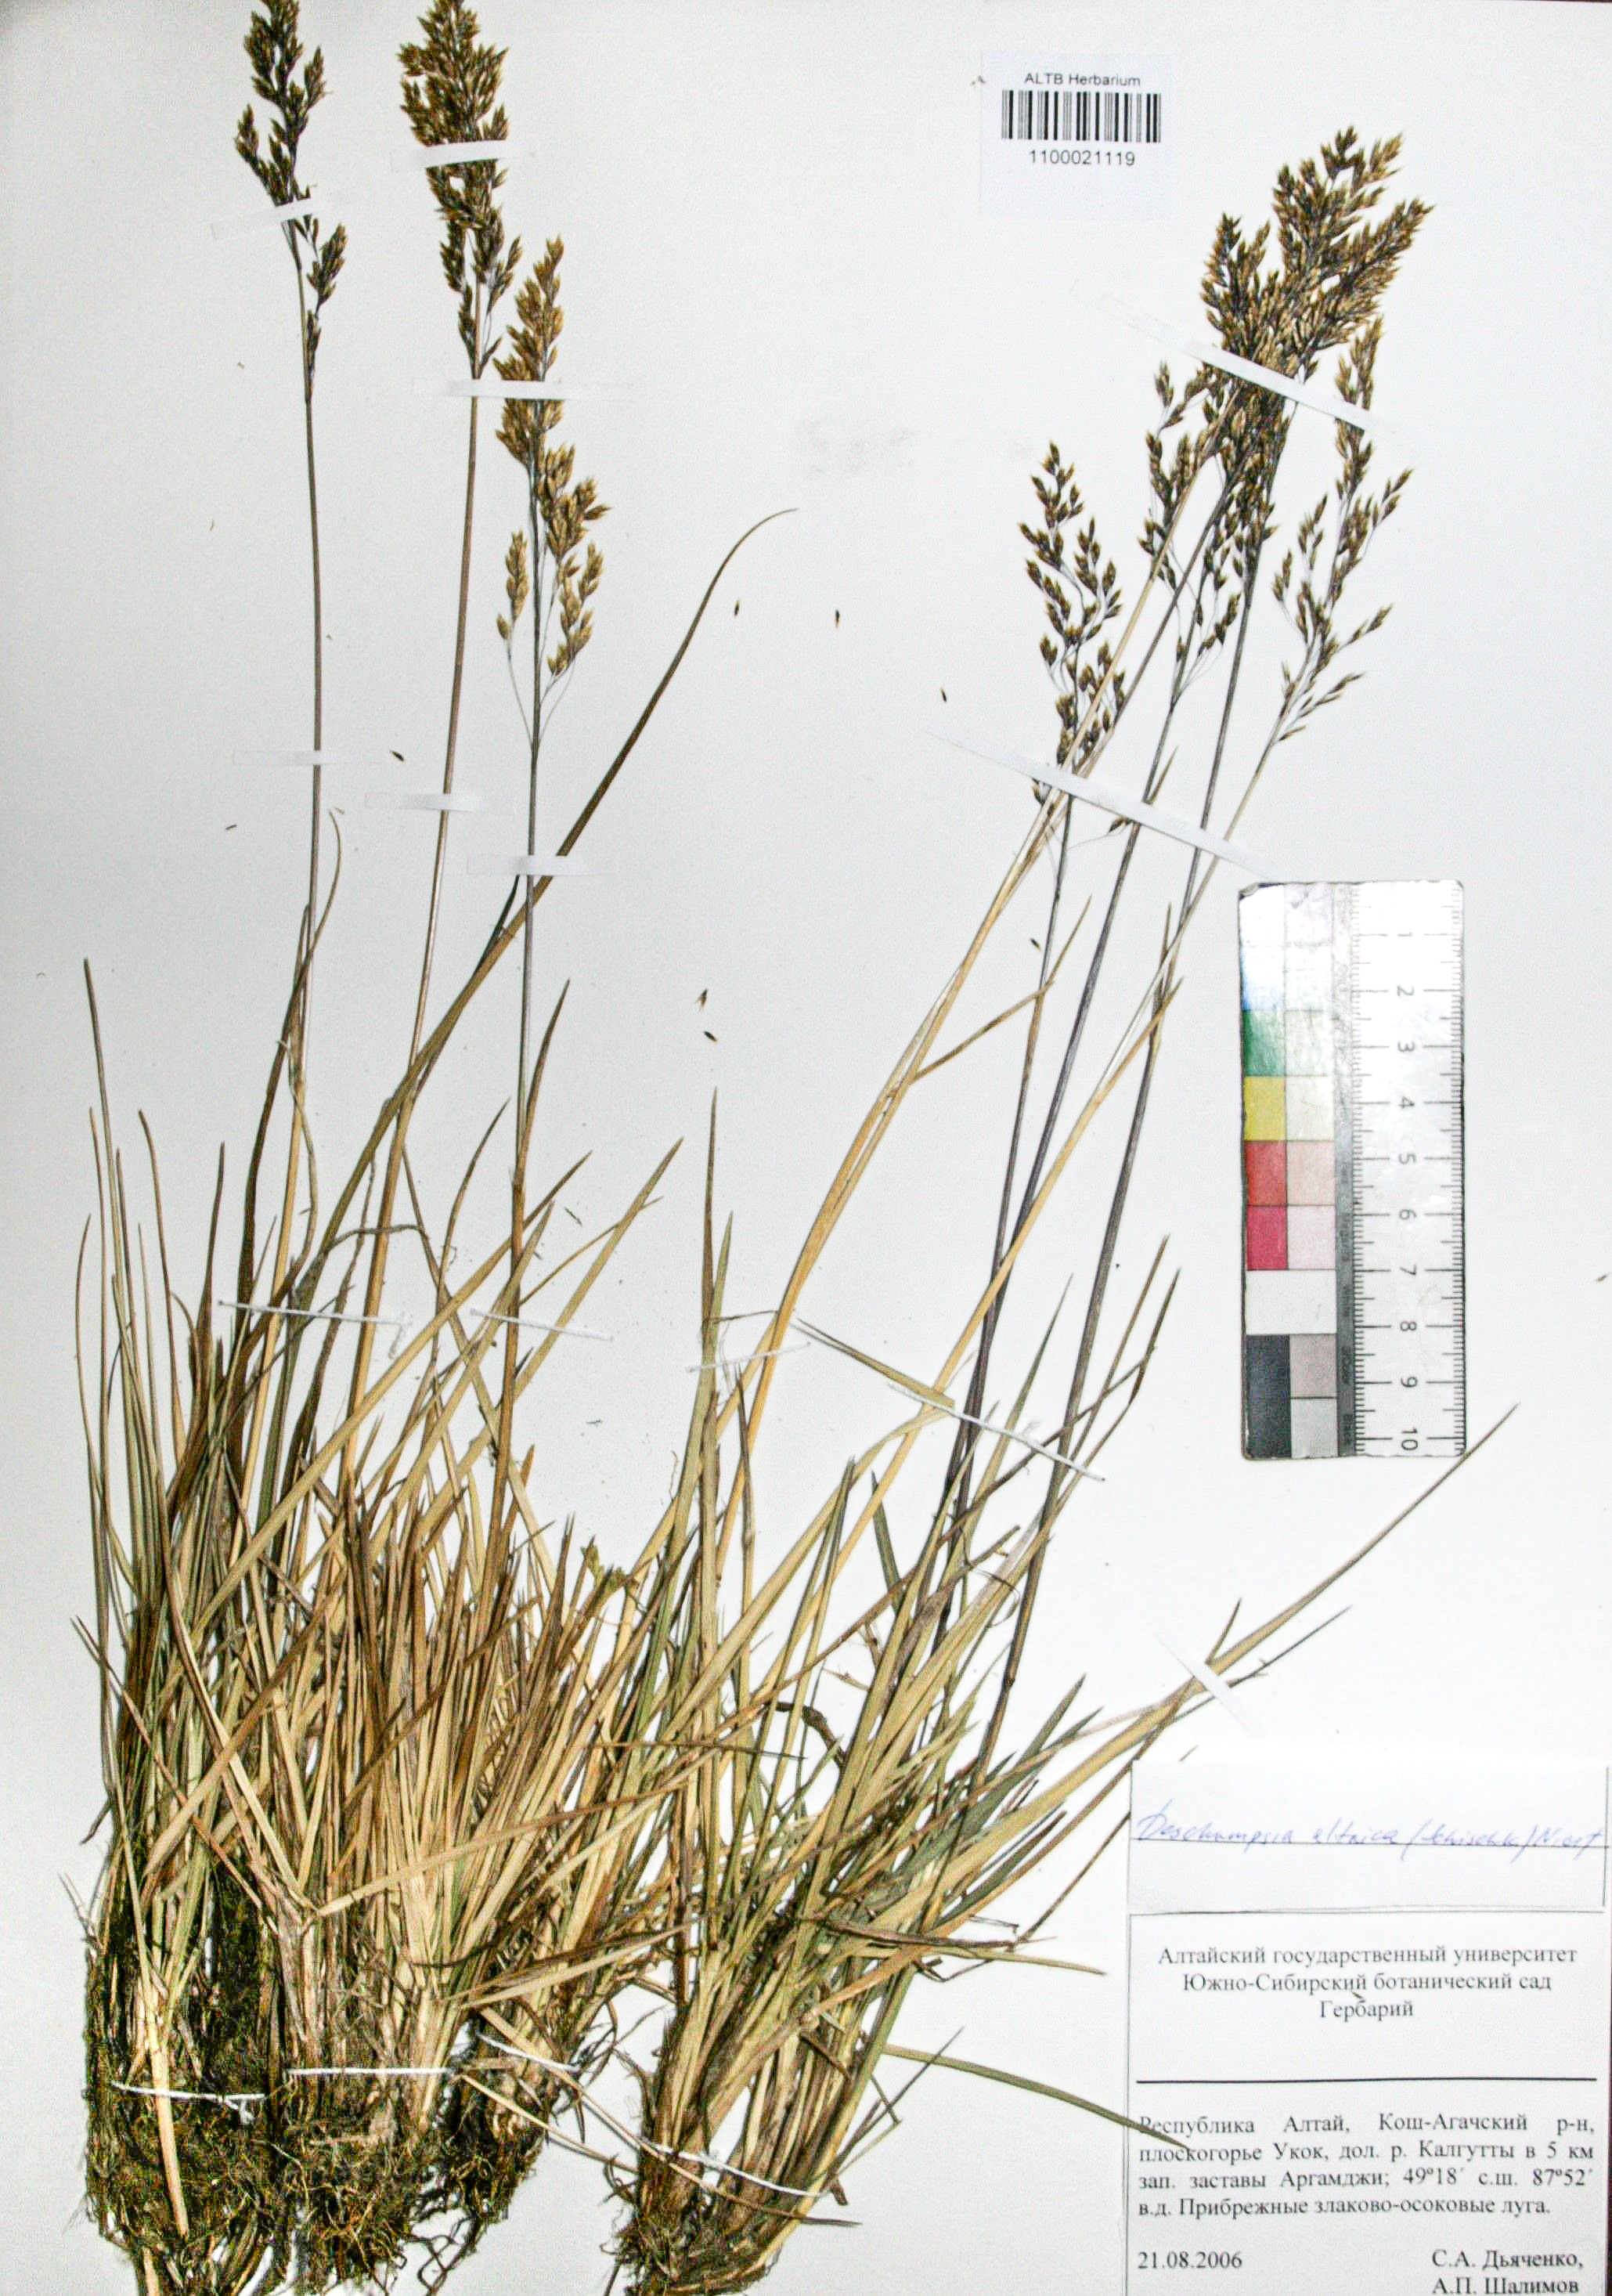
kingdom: Plantae
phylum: Tracheophyta
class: Liliopsida
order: Poales
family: Poaceae
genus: Deschampsia
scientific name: Deschampsia cespitosa
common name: Tufted hair-grass
